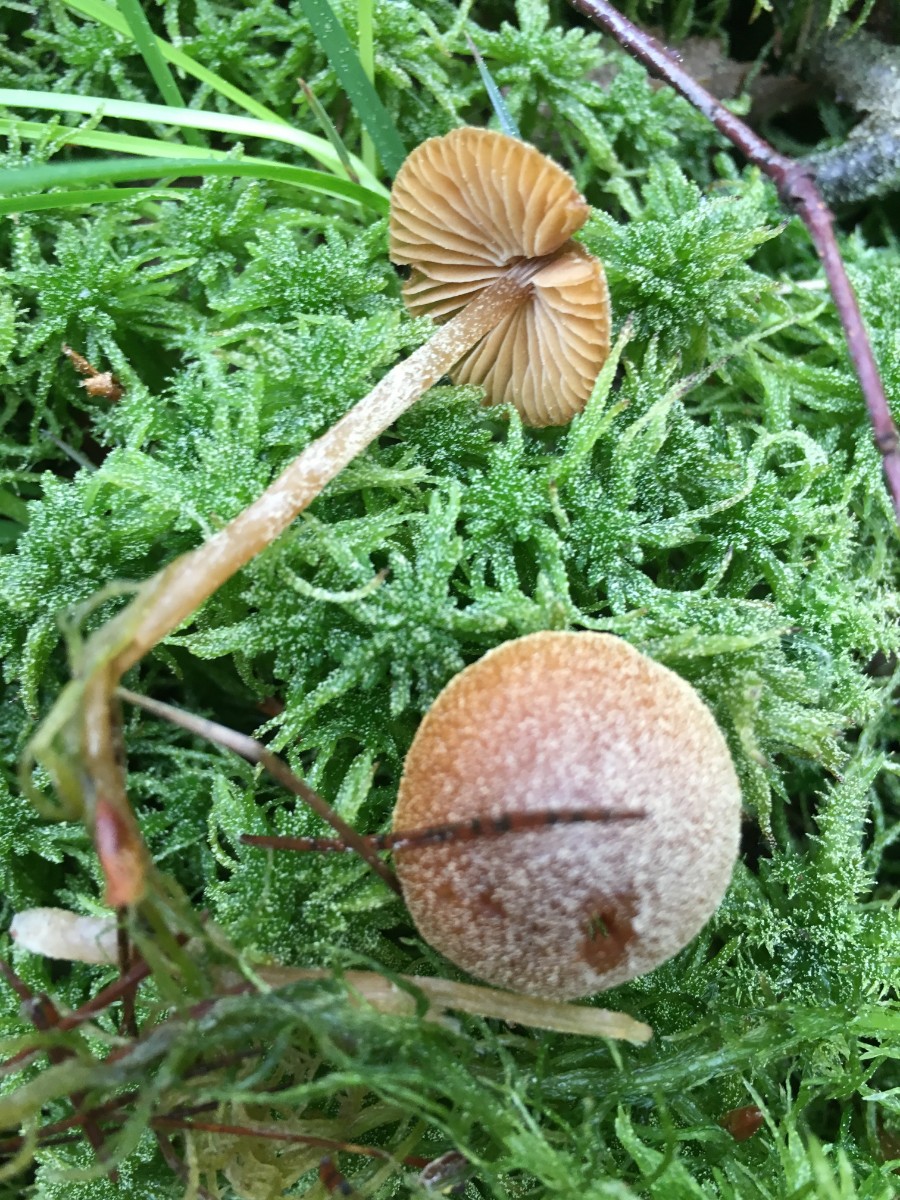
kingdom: Fungi
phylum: Basidiomycota
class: Agaricomycetes
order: Agaricales
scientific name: Agaricales
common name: champignonordenen
